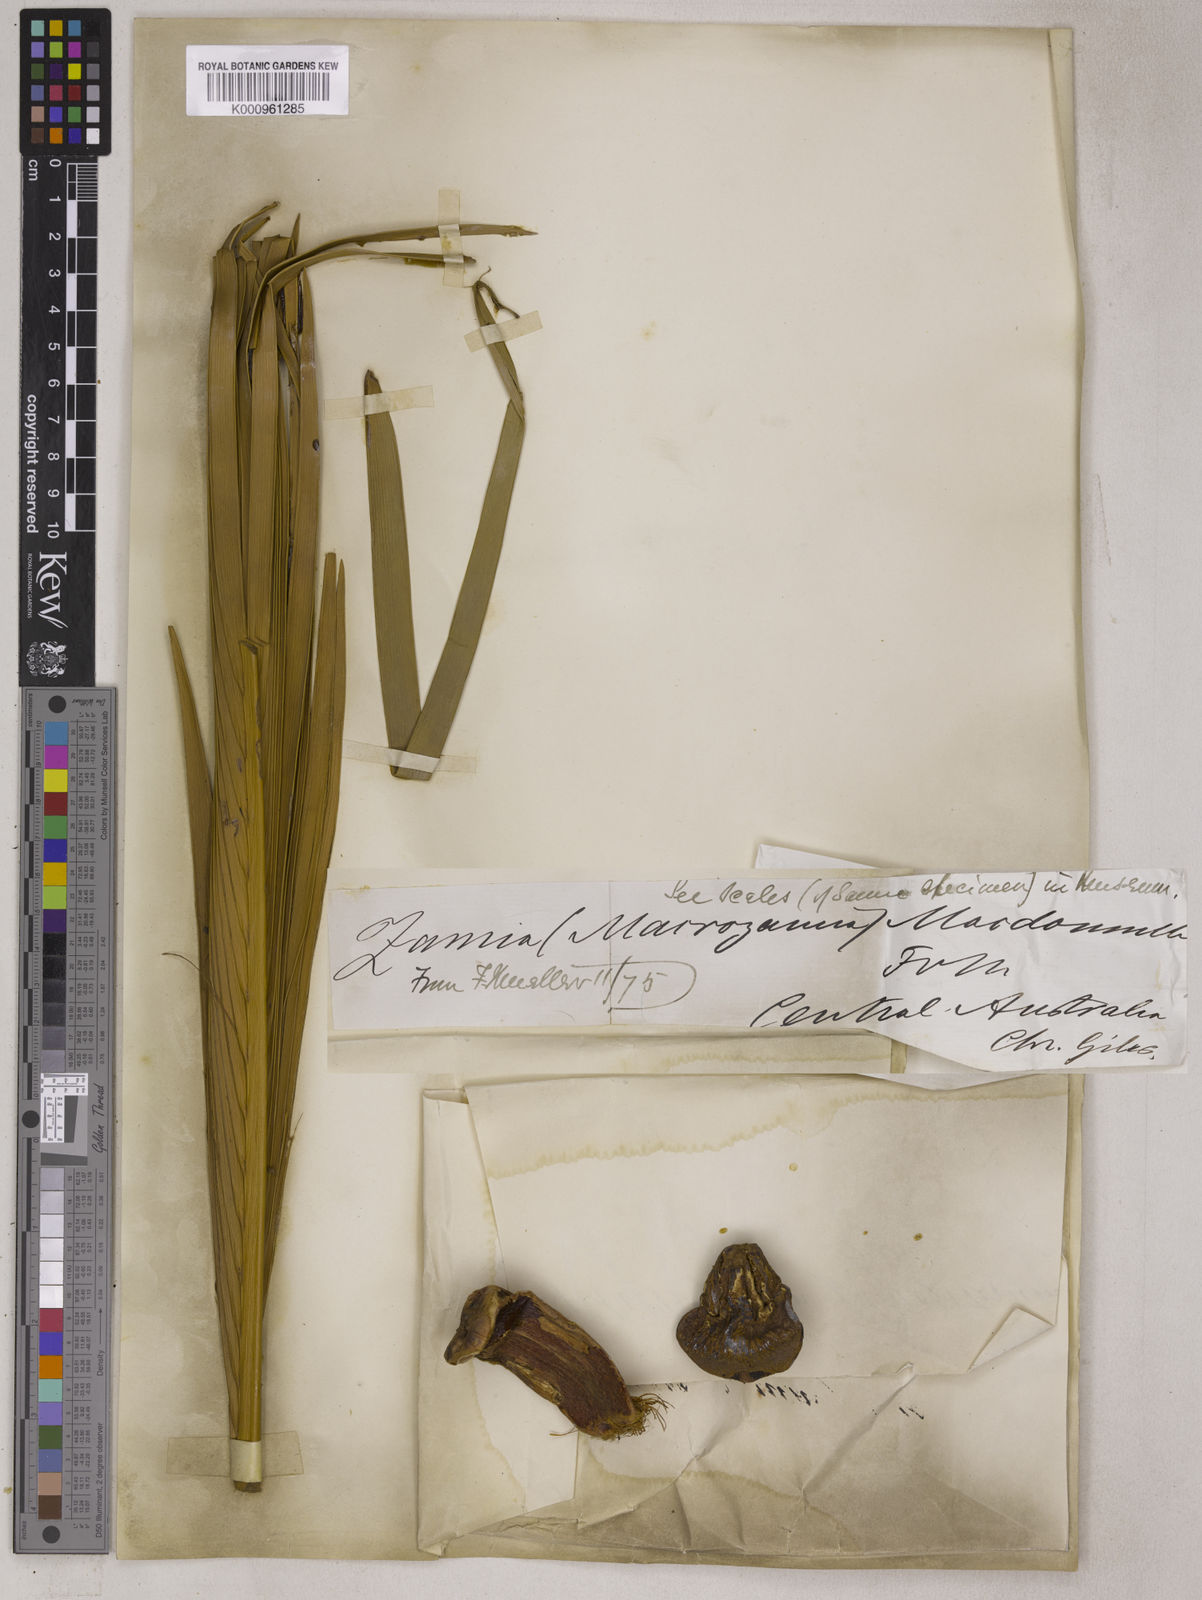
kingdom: Plantae
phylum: Tracheophyta
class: Cycadopsida
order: Cycadales
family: Zamiaceae
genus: Macrozamia
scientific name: Macrozamia macdonnellii
